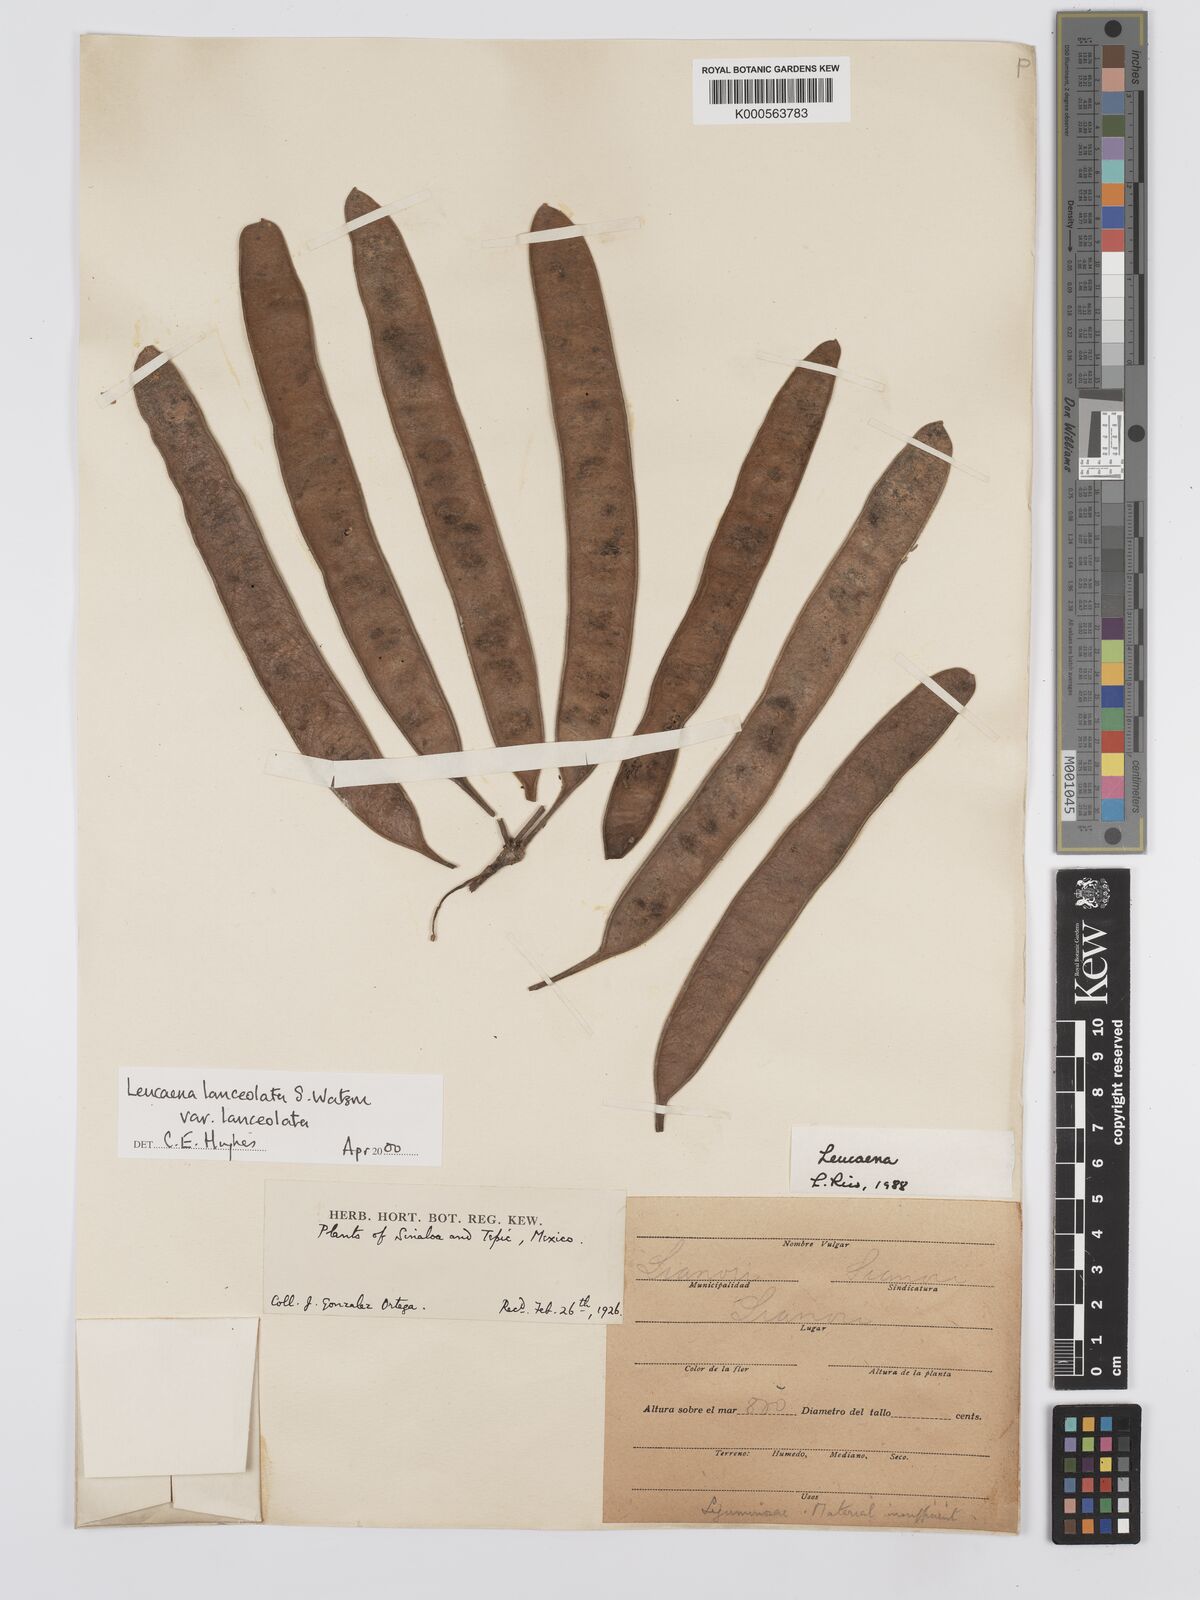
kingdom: Plantae
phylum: Tracheophyta
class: Magnoliopsida
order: Fabales
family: Fabaceae
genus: Leucaena
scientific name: Leucaena lanceolata
